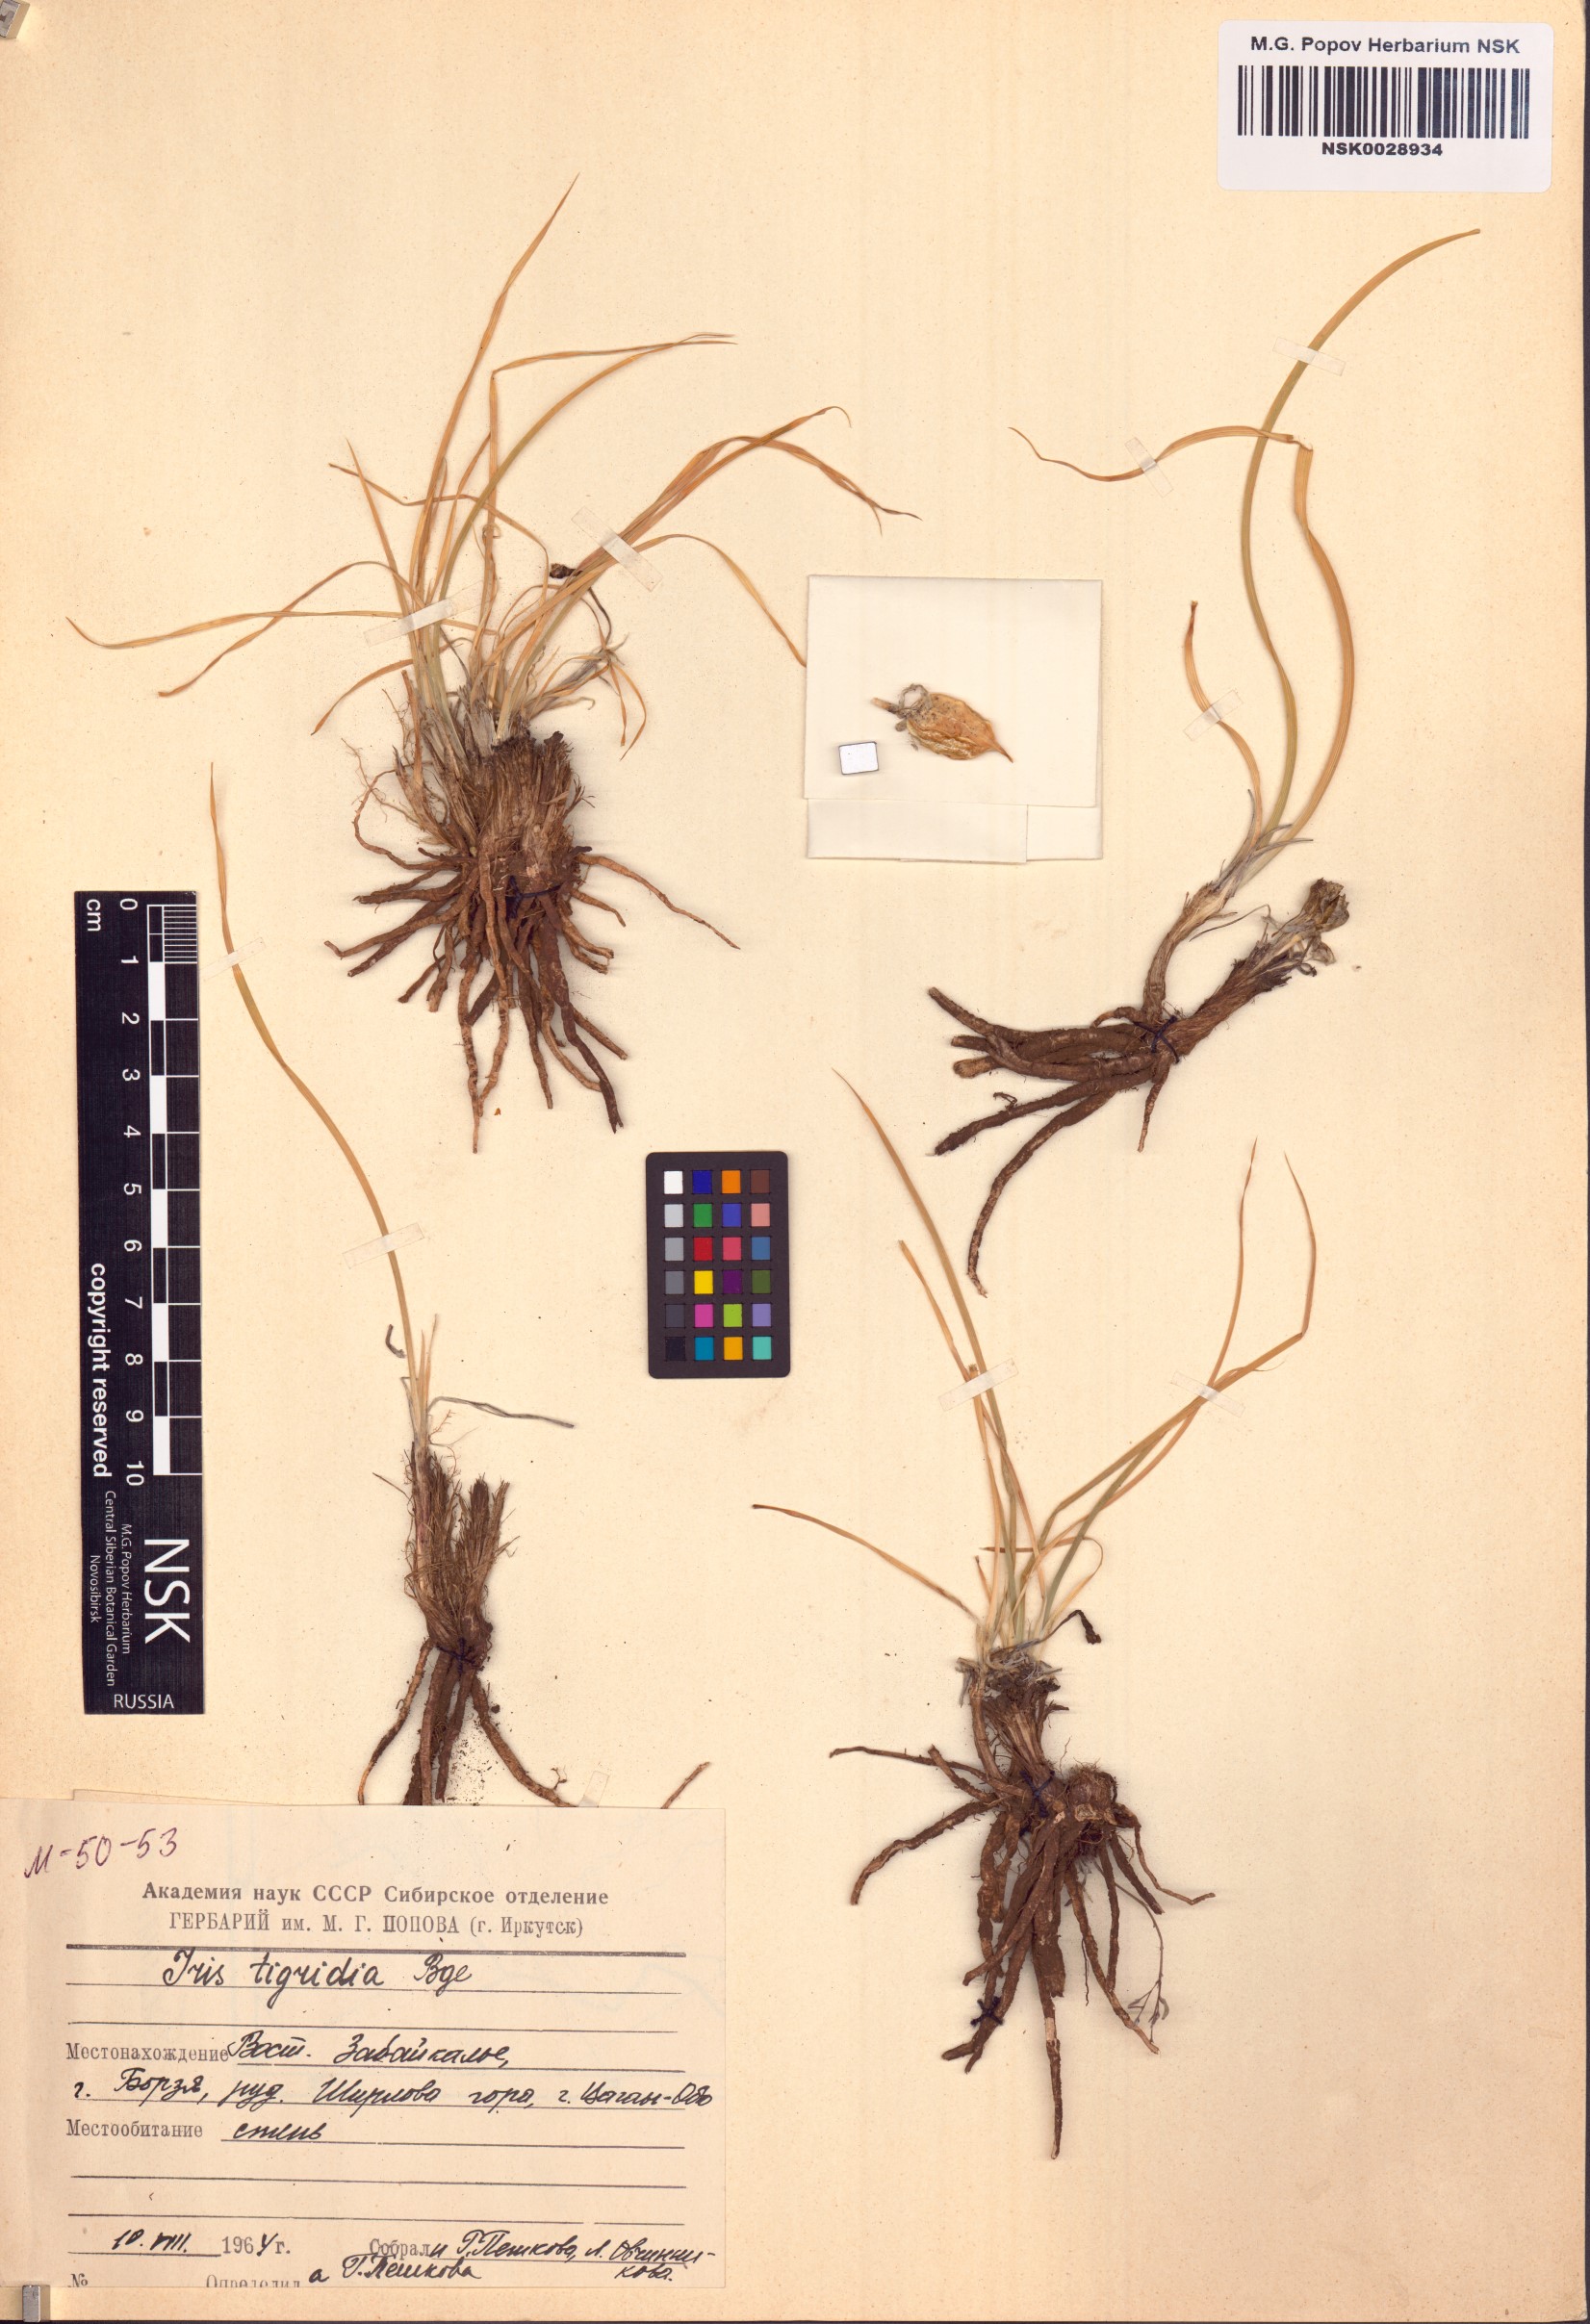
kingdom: Plantae
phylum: Tracheophyta
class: Liliopsida
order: Asparagales
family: Iridaceae
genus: Iris
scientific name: Iris tigridia
